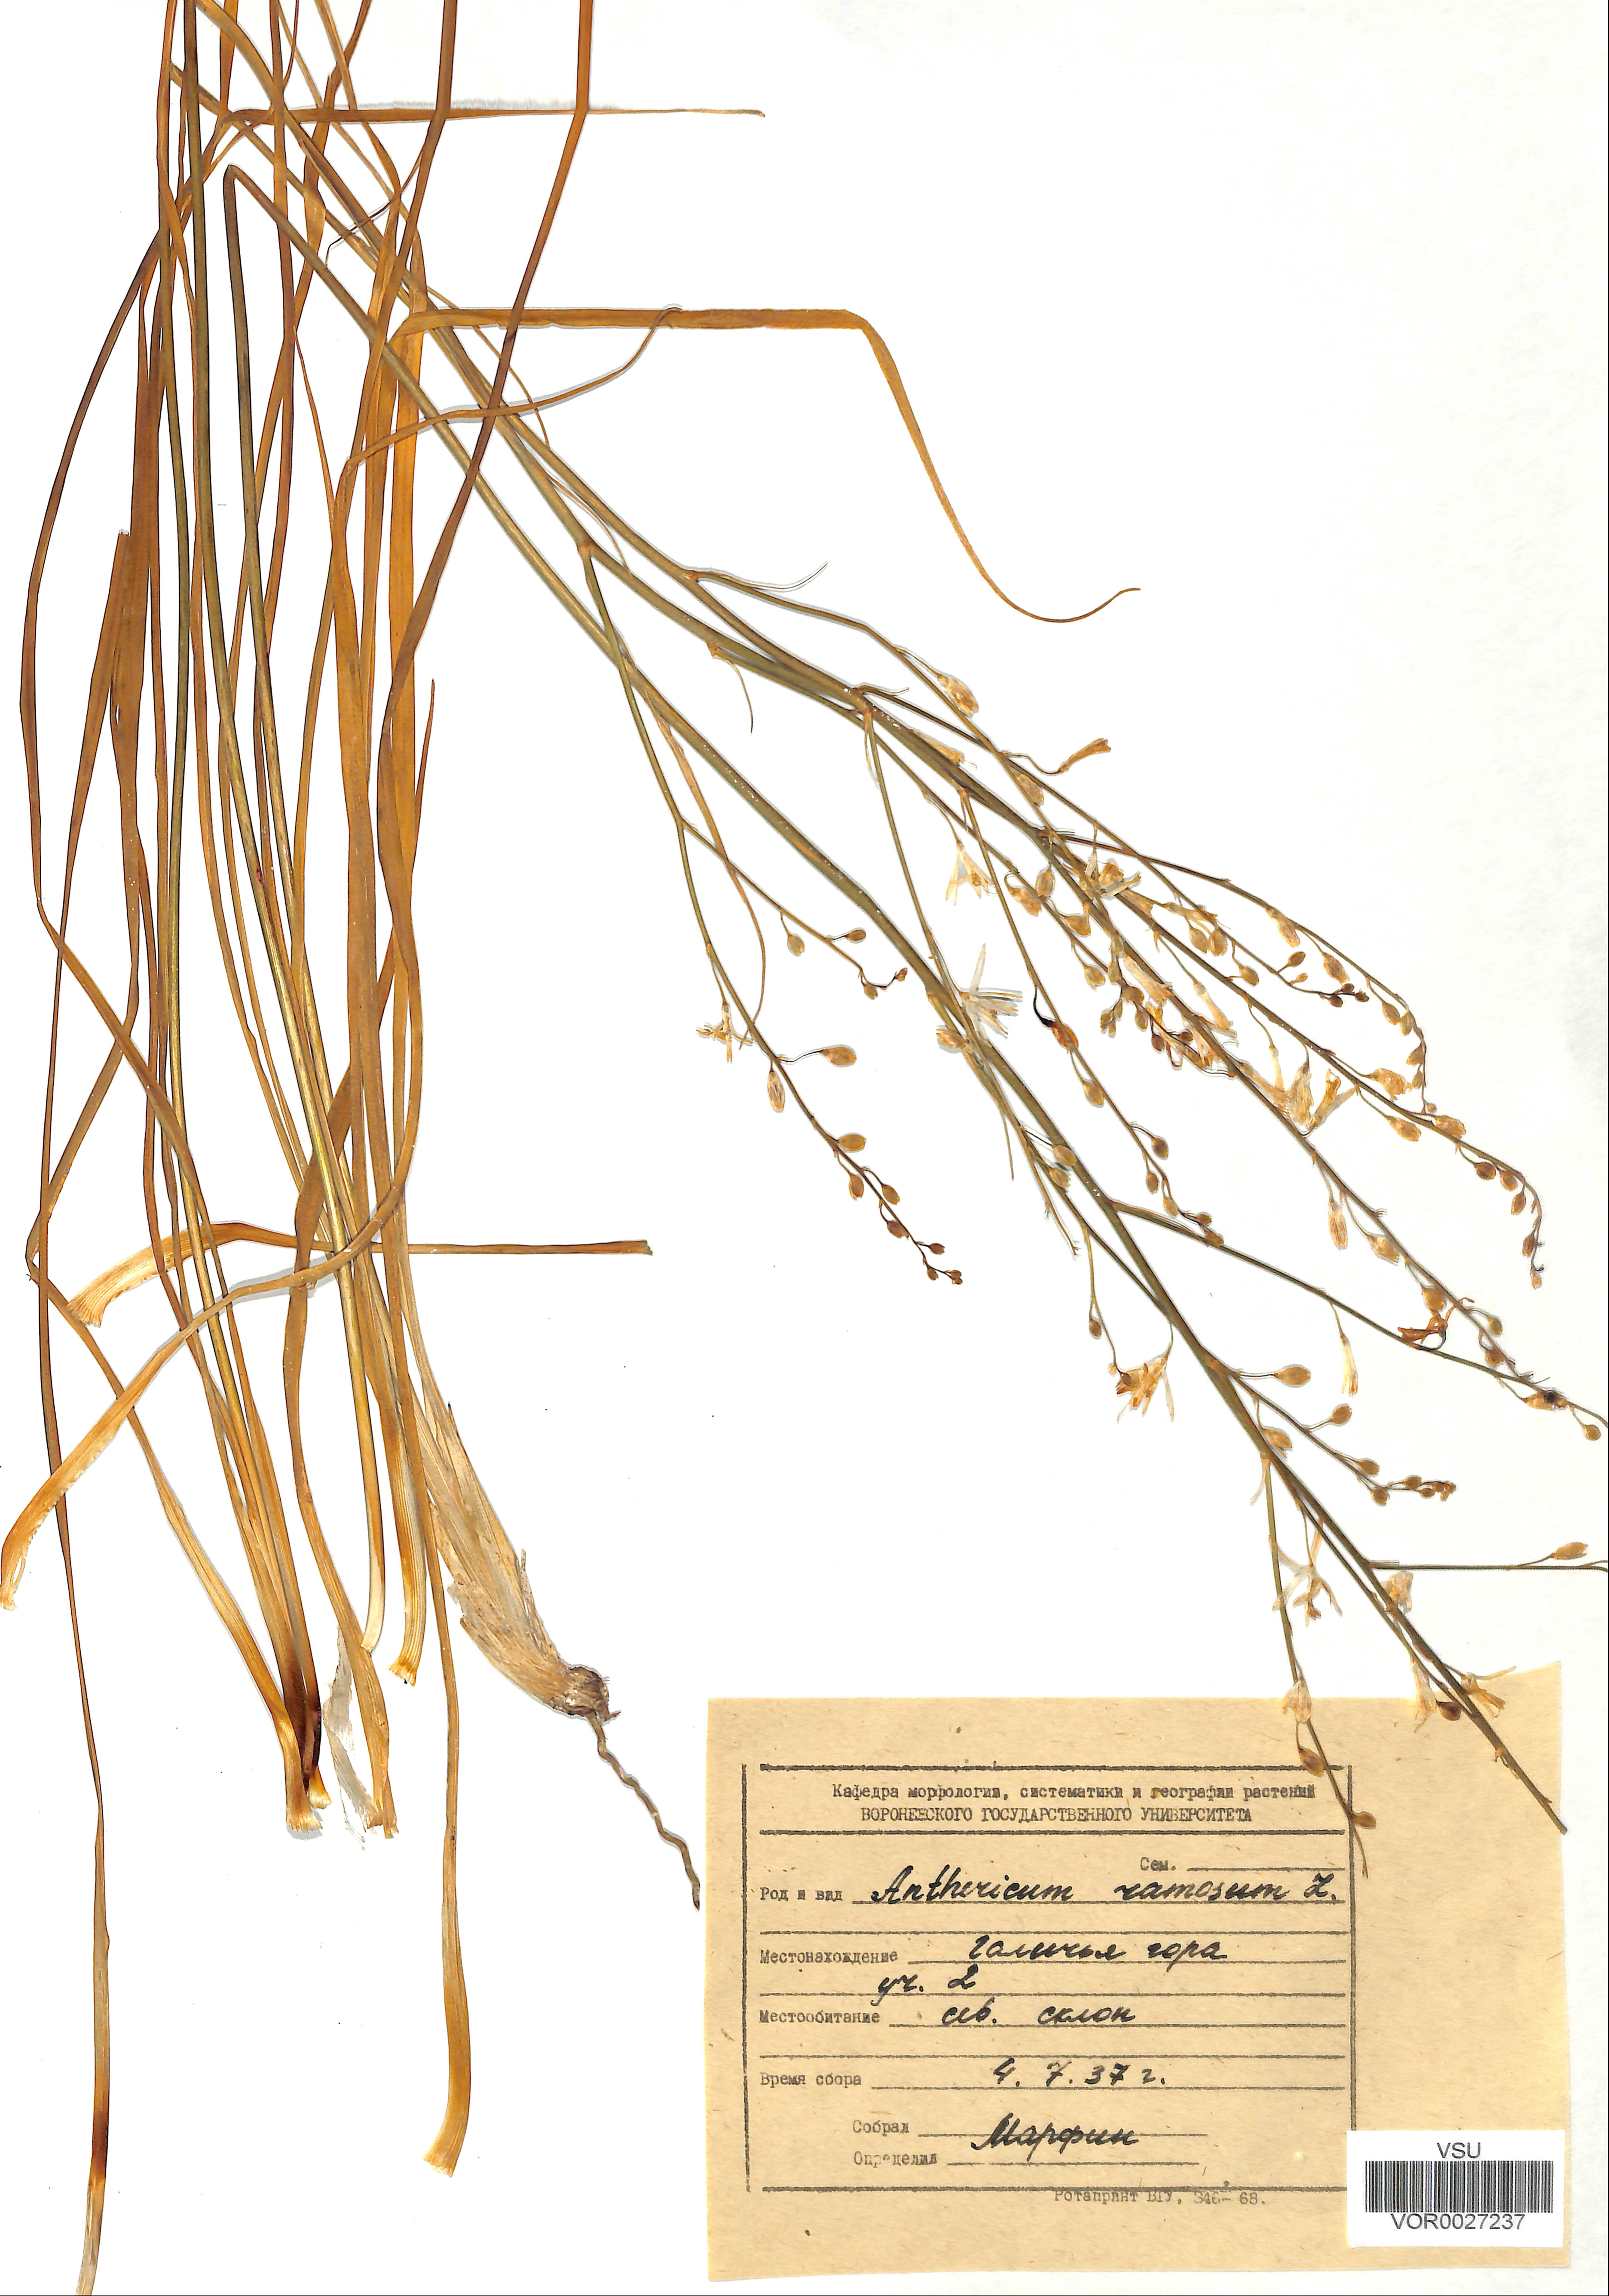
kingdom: Plantae
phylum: Tracheophyta
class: Liliopsida
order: Asparagales
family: Asparagaceae
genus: Anthericum
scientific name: Anthericum ramosum
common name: Branched st. bernard's-lily
